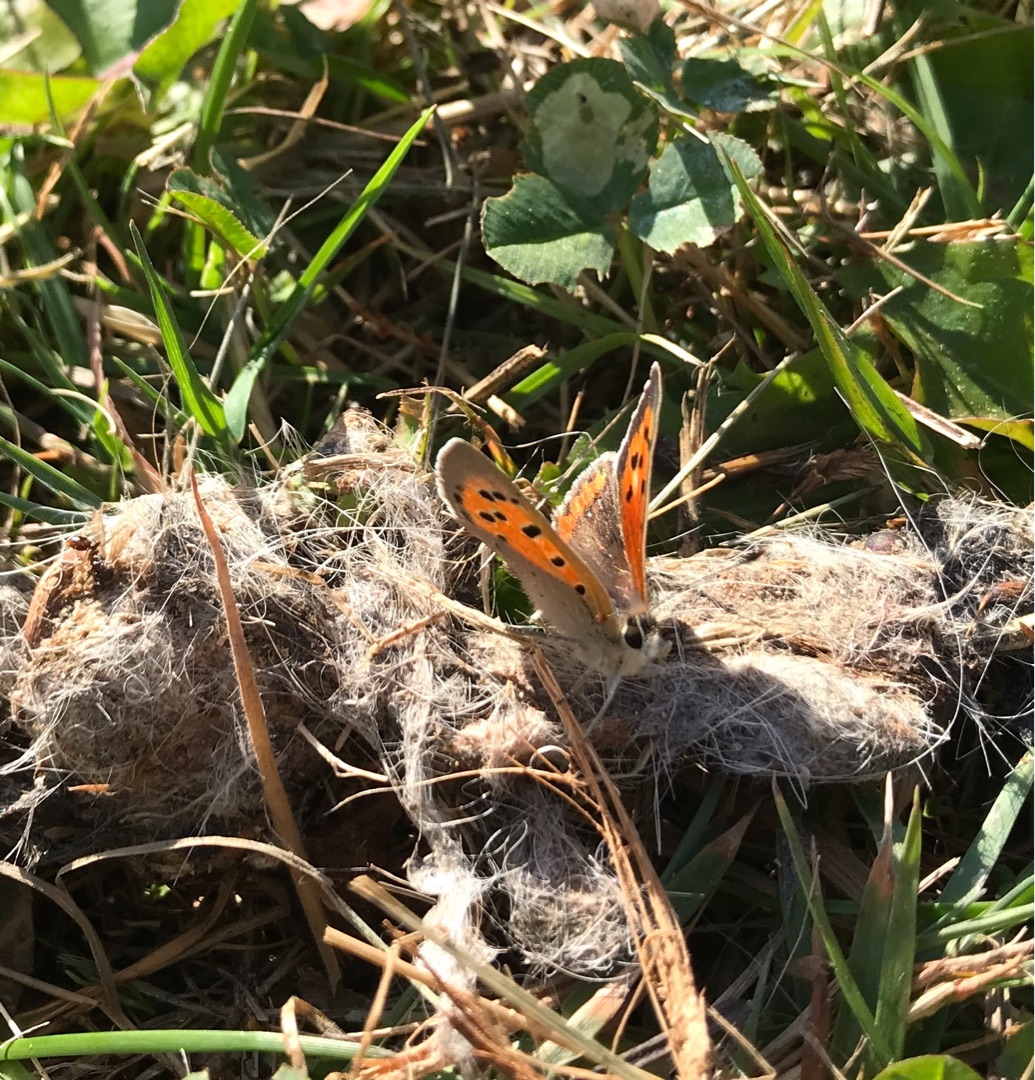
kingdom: Animalia
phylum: Arthropoda
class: Insecta
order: Lepidoptera
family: Lycaenidae
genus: Lycaena
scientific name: Lycaena phlaeas
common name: Lille ildfugl
